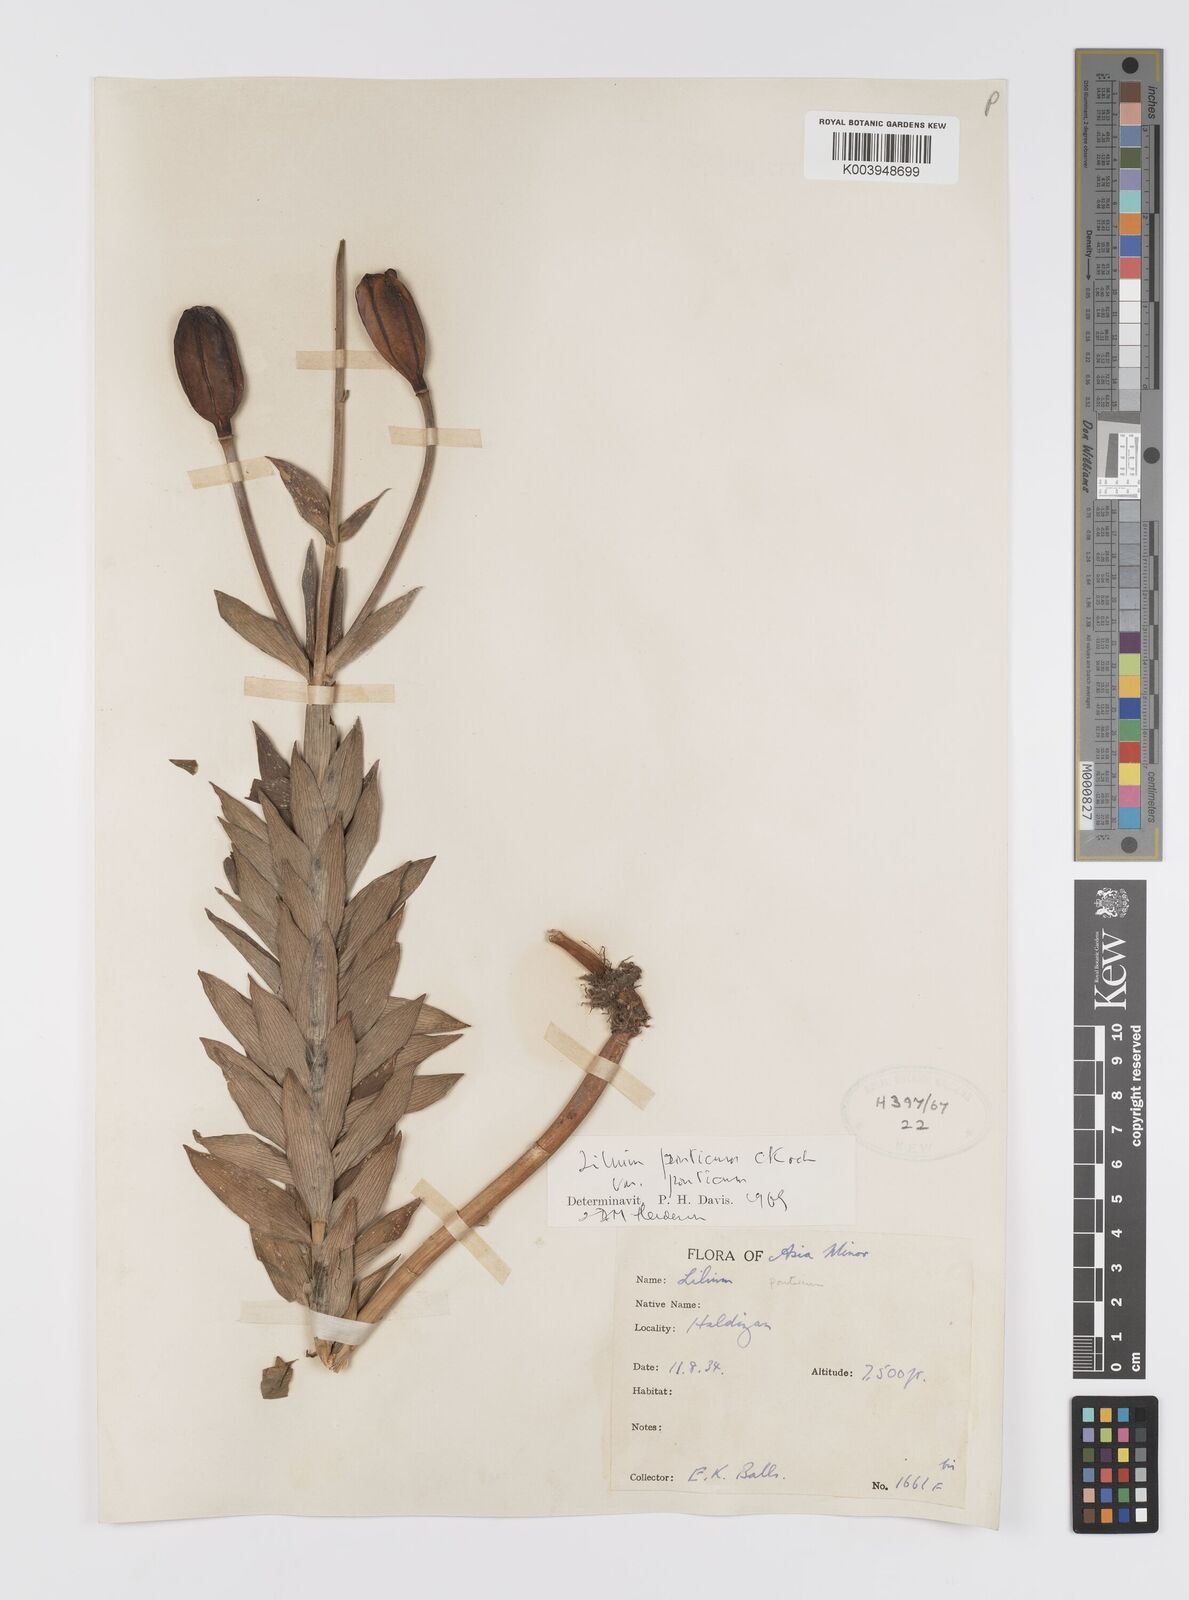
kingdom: Plantae
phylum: Tracheophyta
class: Liliopsida
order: Liliales
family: Liliaceae
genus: Lilium
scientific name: Lilium ponticum
